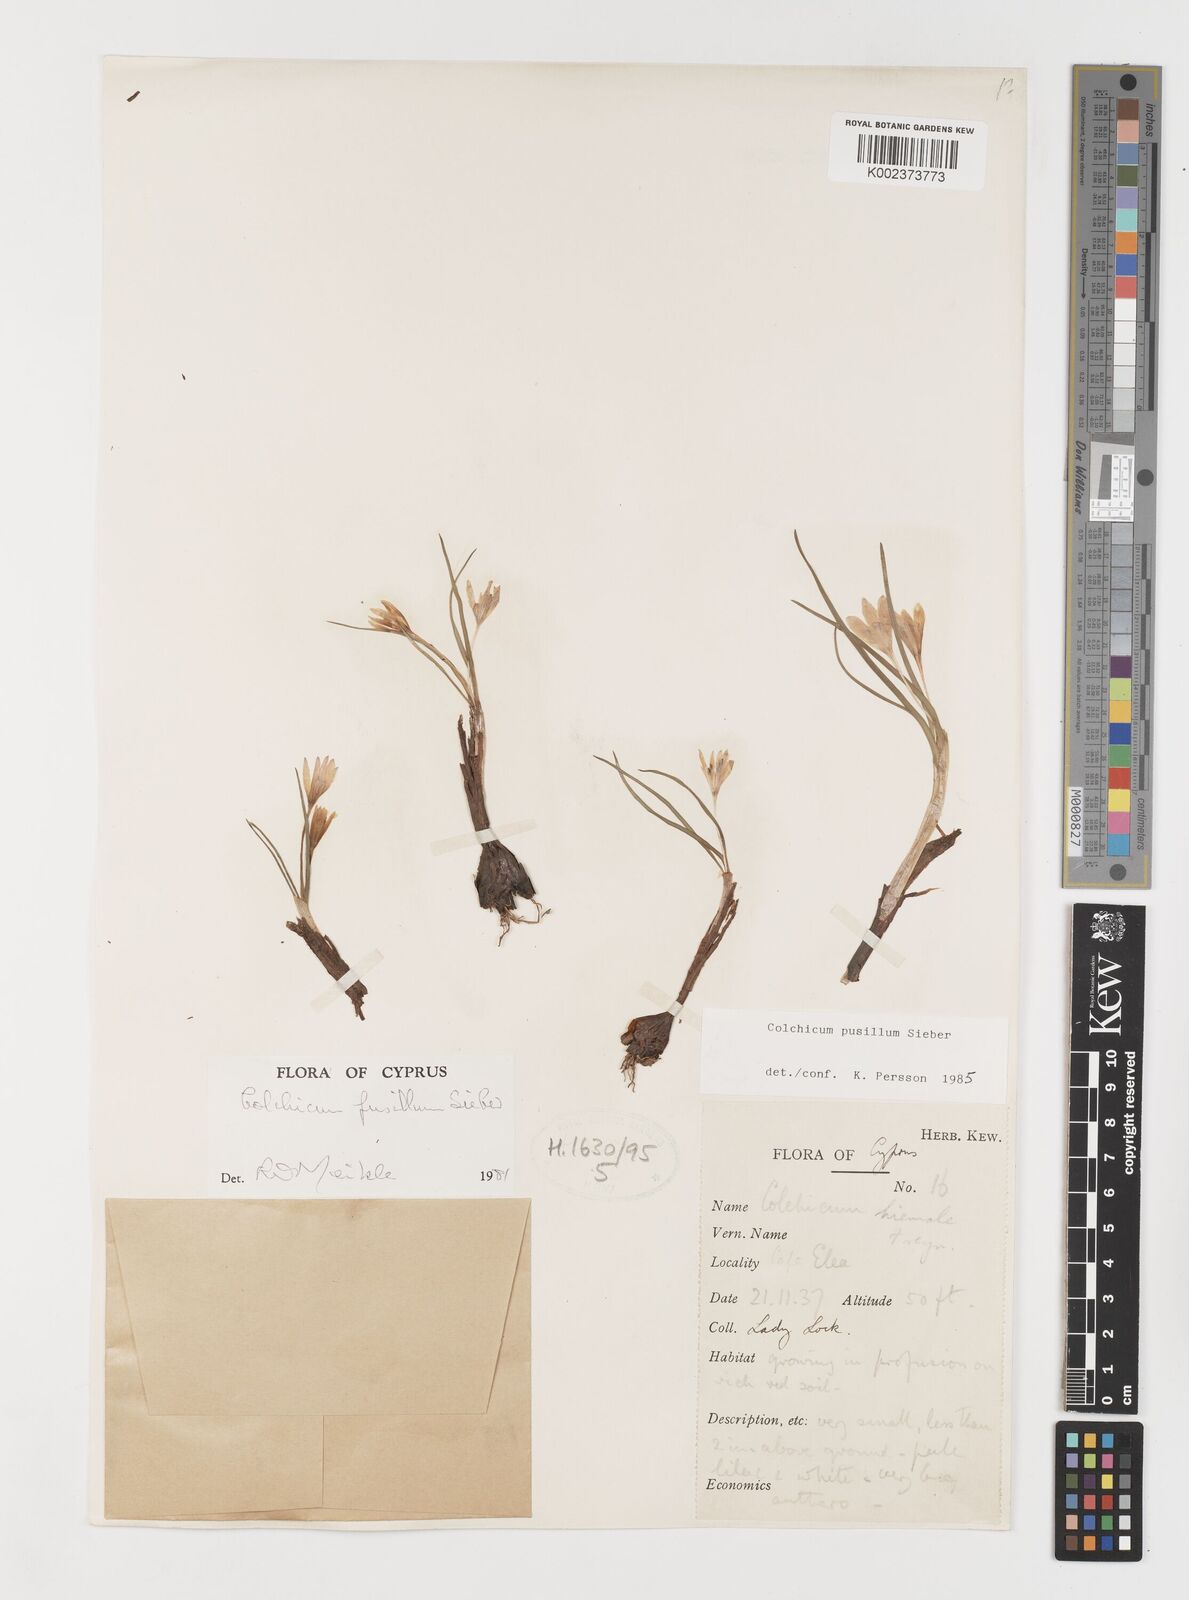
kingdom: Plantae
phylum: Tracheophyta
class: Liliopsida
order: Liliales
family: Colchicaceae
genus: Colchicum
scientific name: Colchicum pusillum
